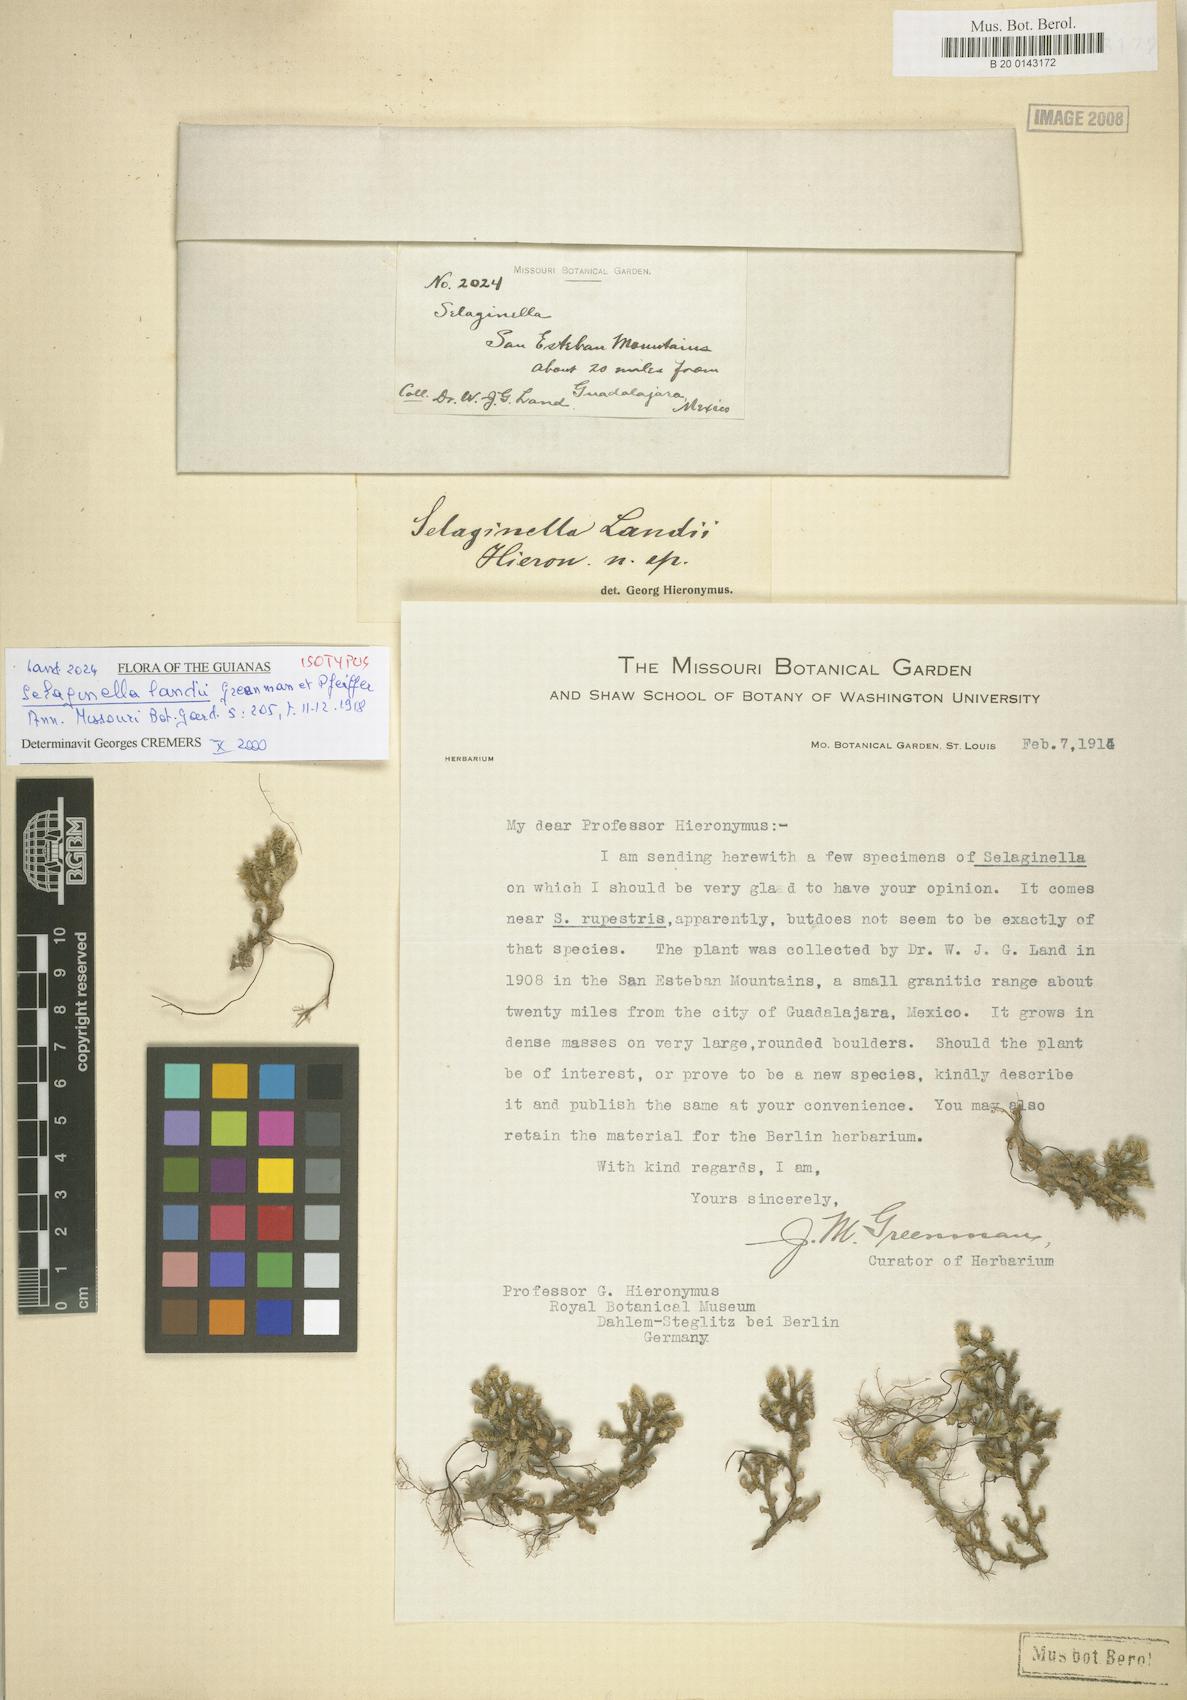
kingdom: Plantae
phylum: Tracheophyta
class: Lycopodiopsida
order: Selaginellales
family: Selaginellaceae
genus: Selaginella
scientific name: Selaginella landii
